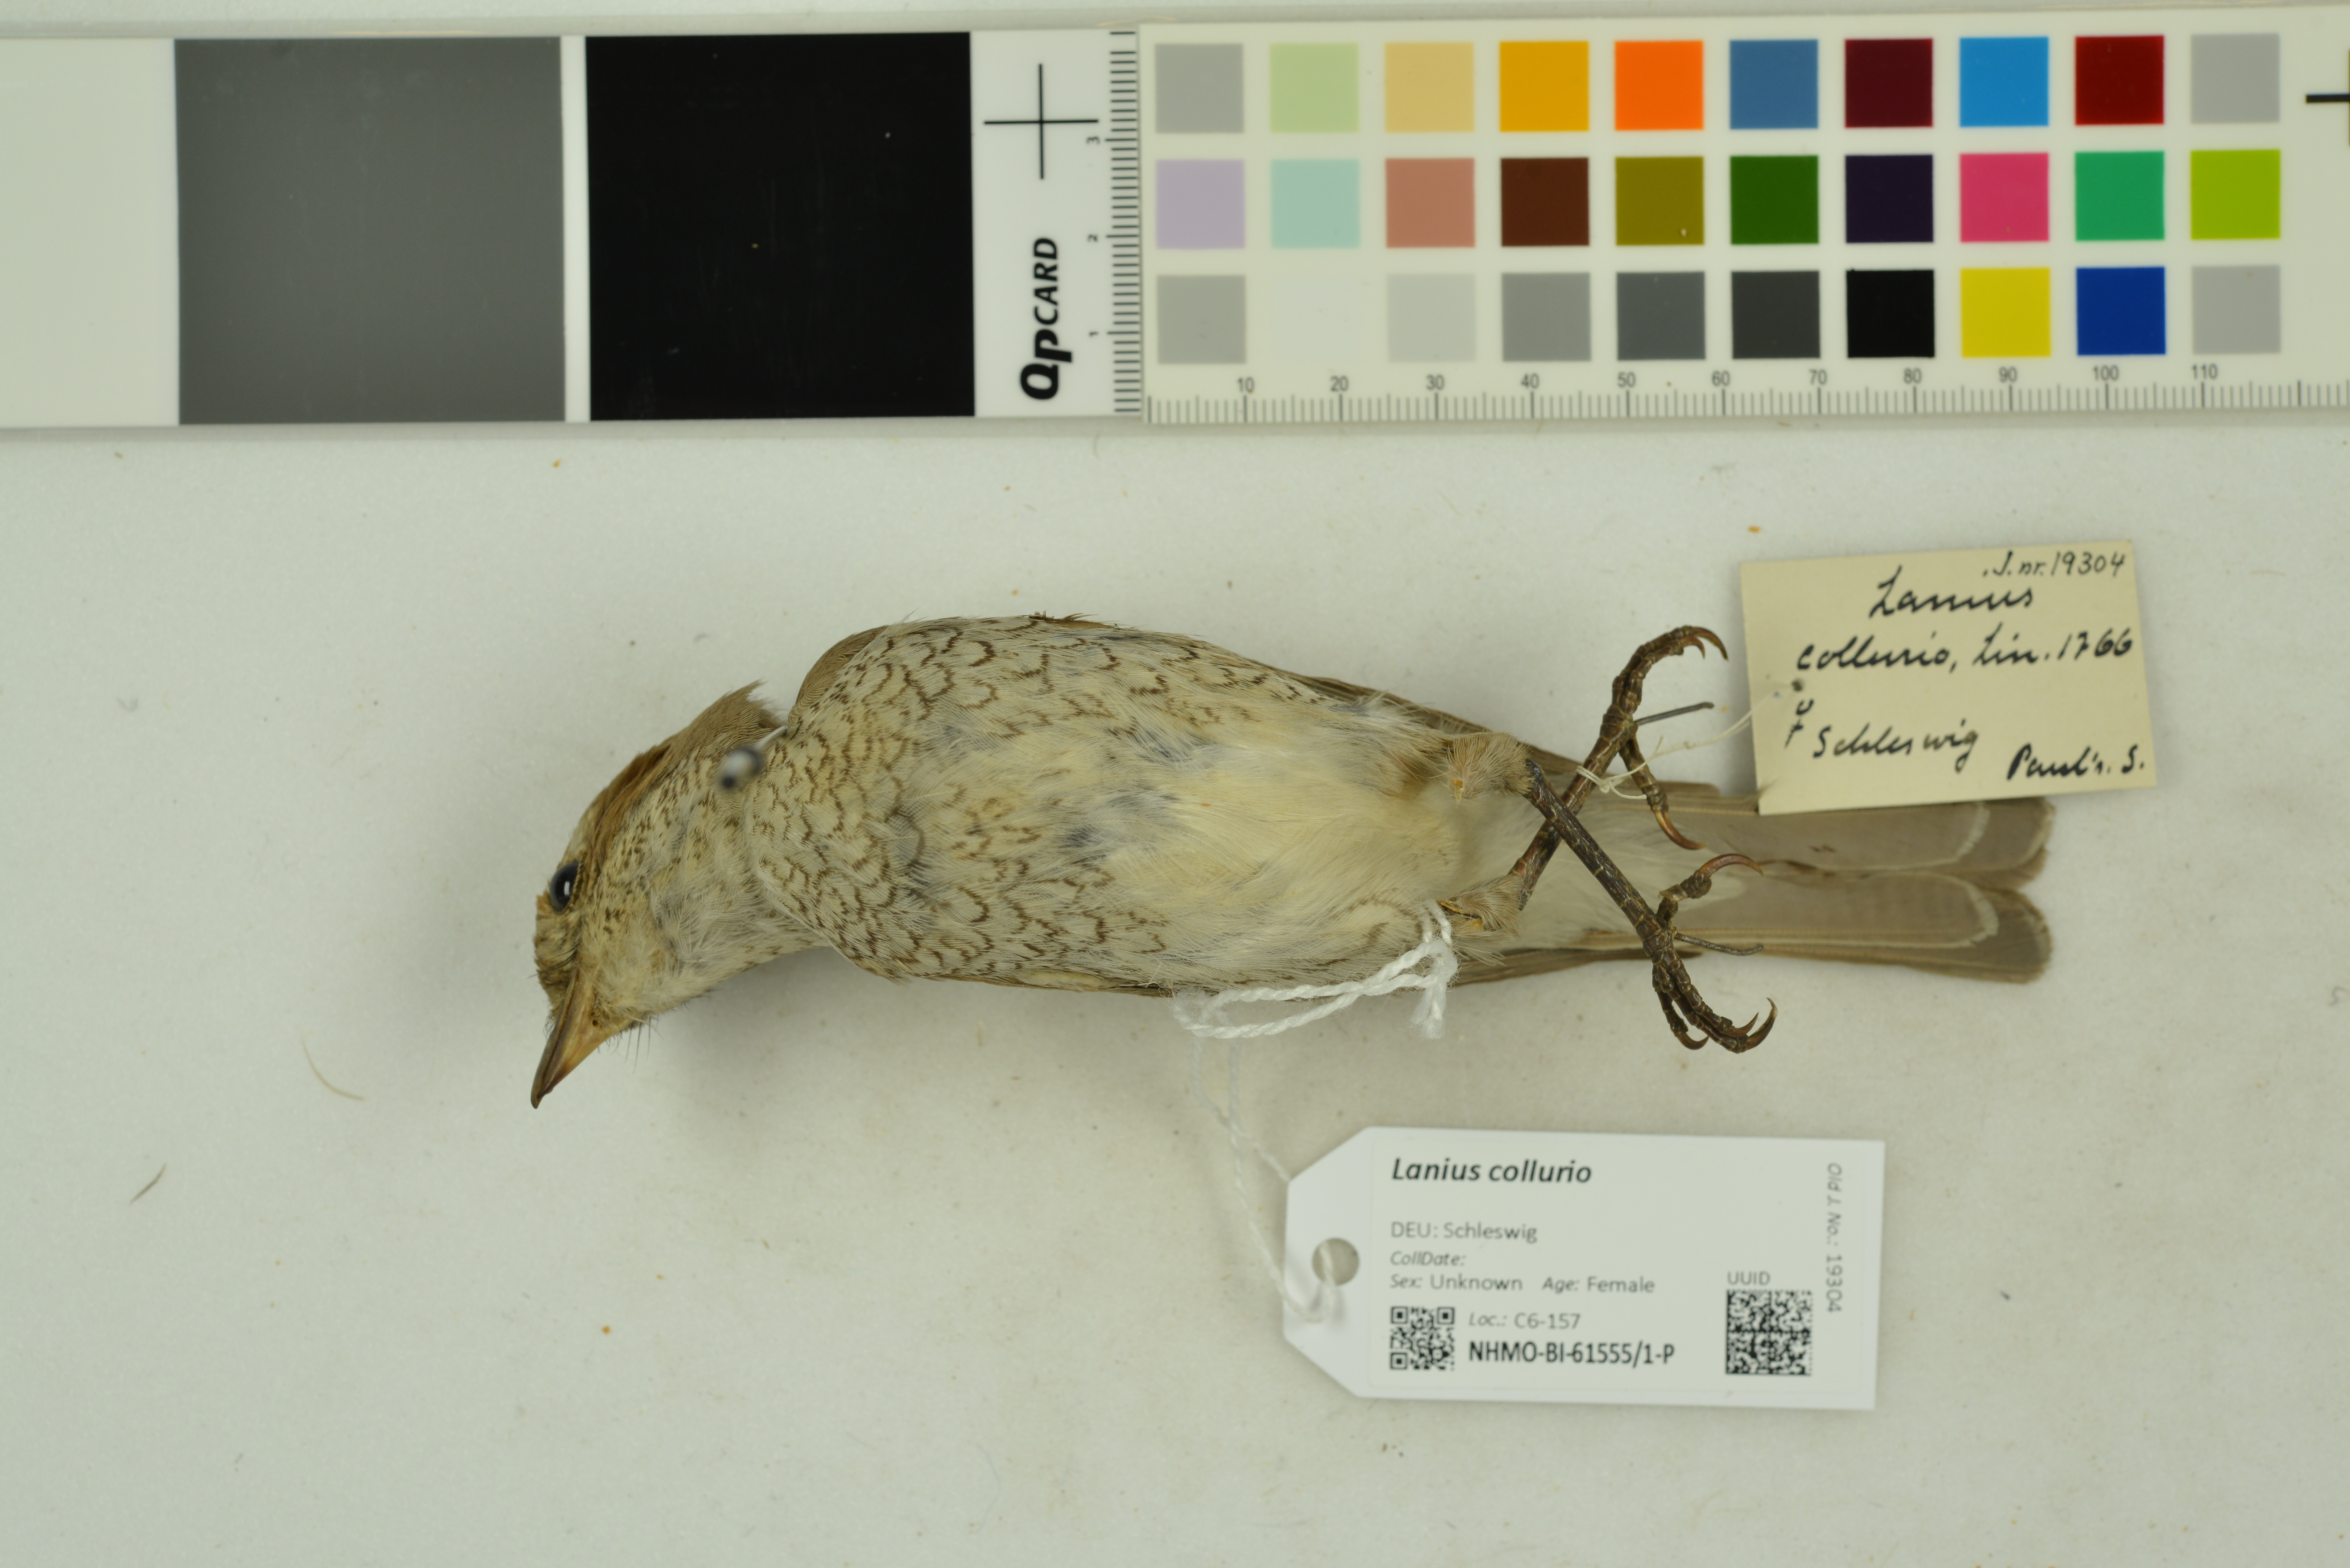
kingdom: Animalia
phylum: Chordata
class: Aves
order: Passeriformes
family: Laniidae
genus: Lanius
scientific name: Lanius collurio
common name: Red-backed shrike
